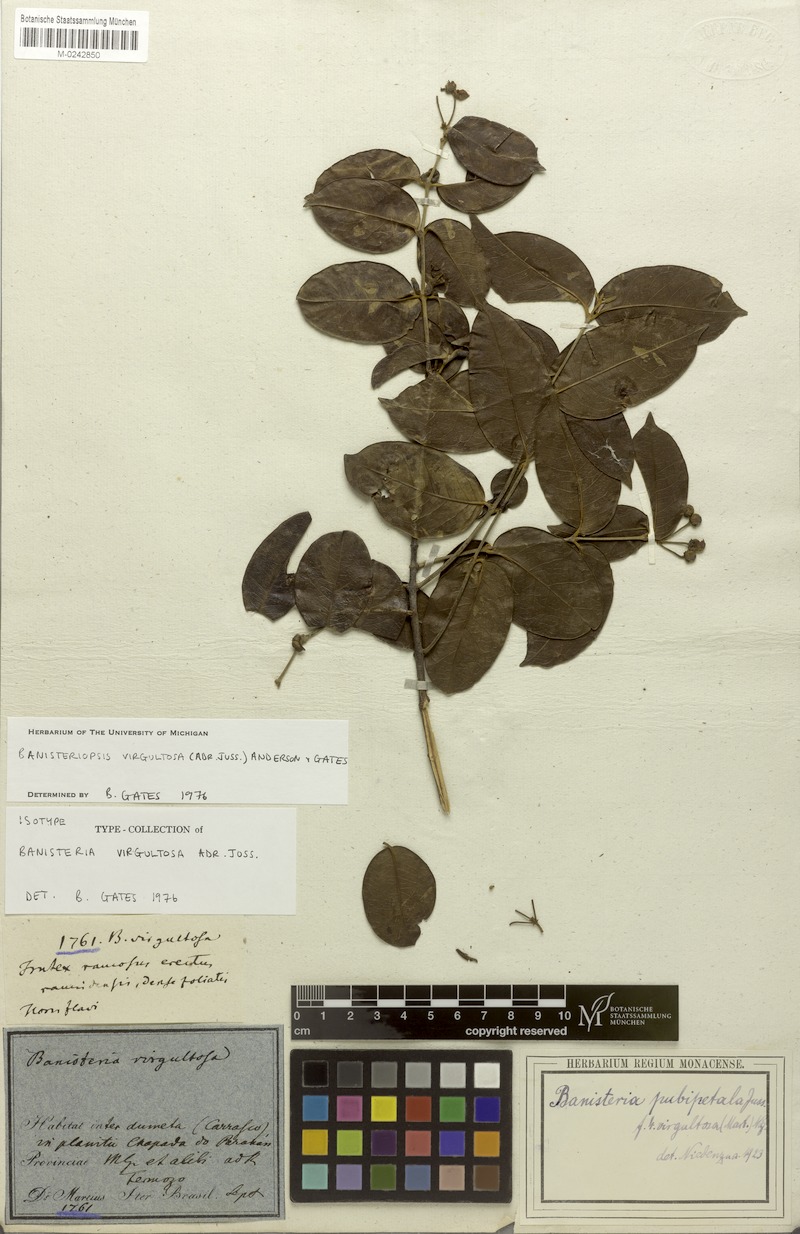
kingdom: Plantae
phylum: Tracheophyta
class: Magnoliopsida
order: Malpighiales
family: Malpighiaceae
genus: Diplopterys
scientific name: Diplopterys virgultosa
